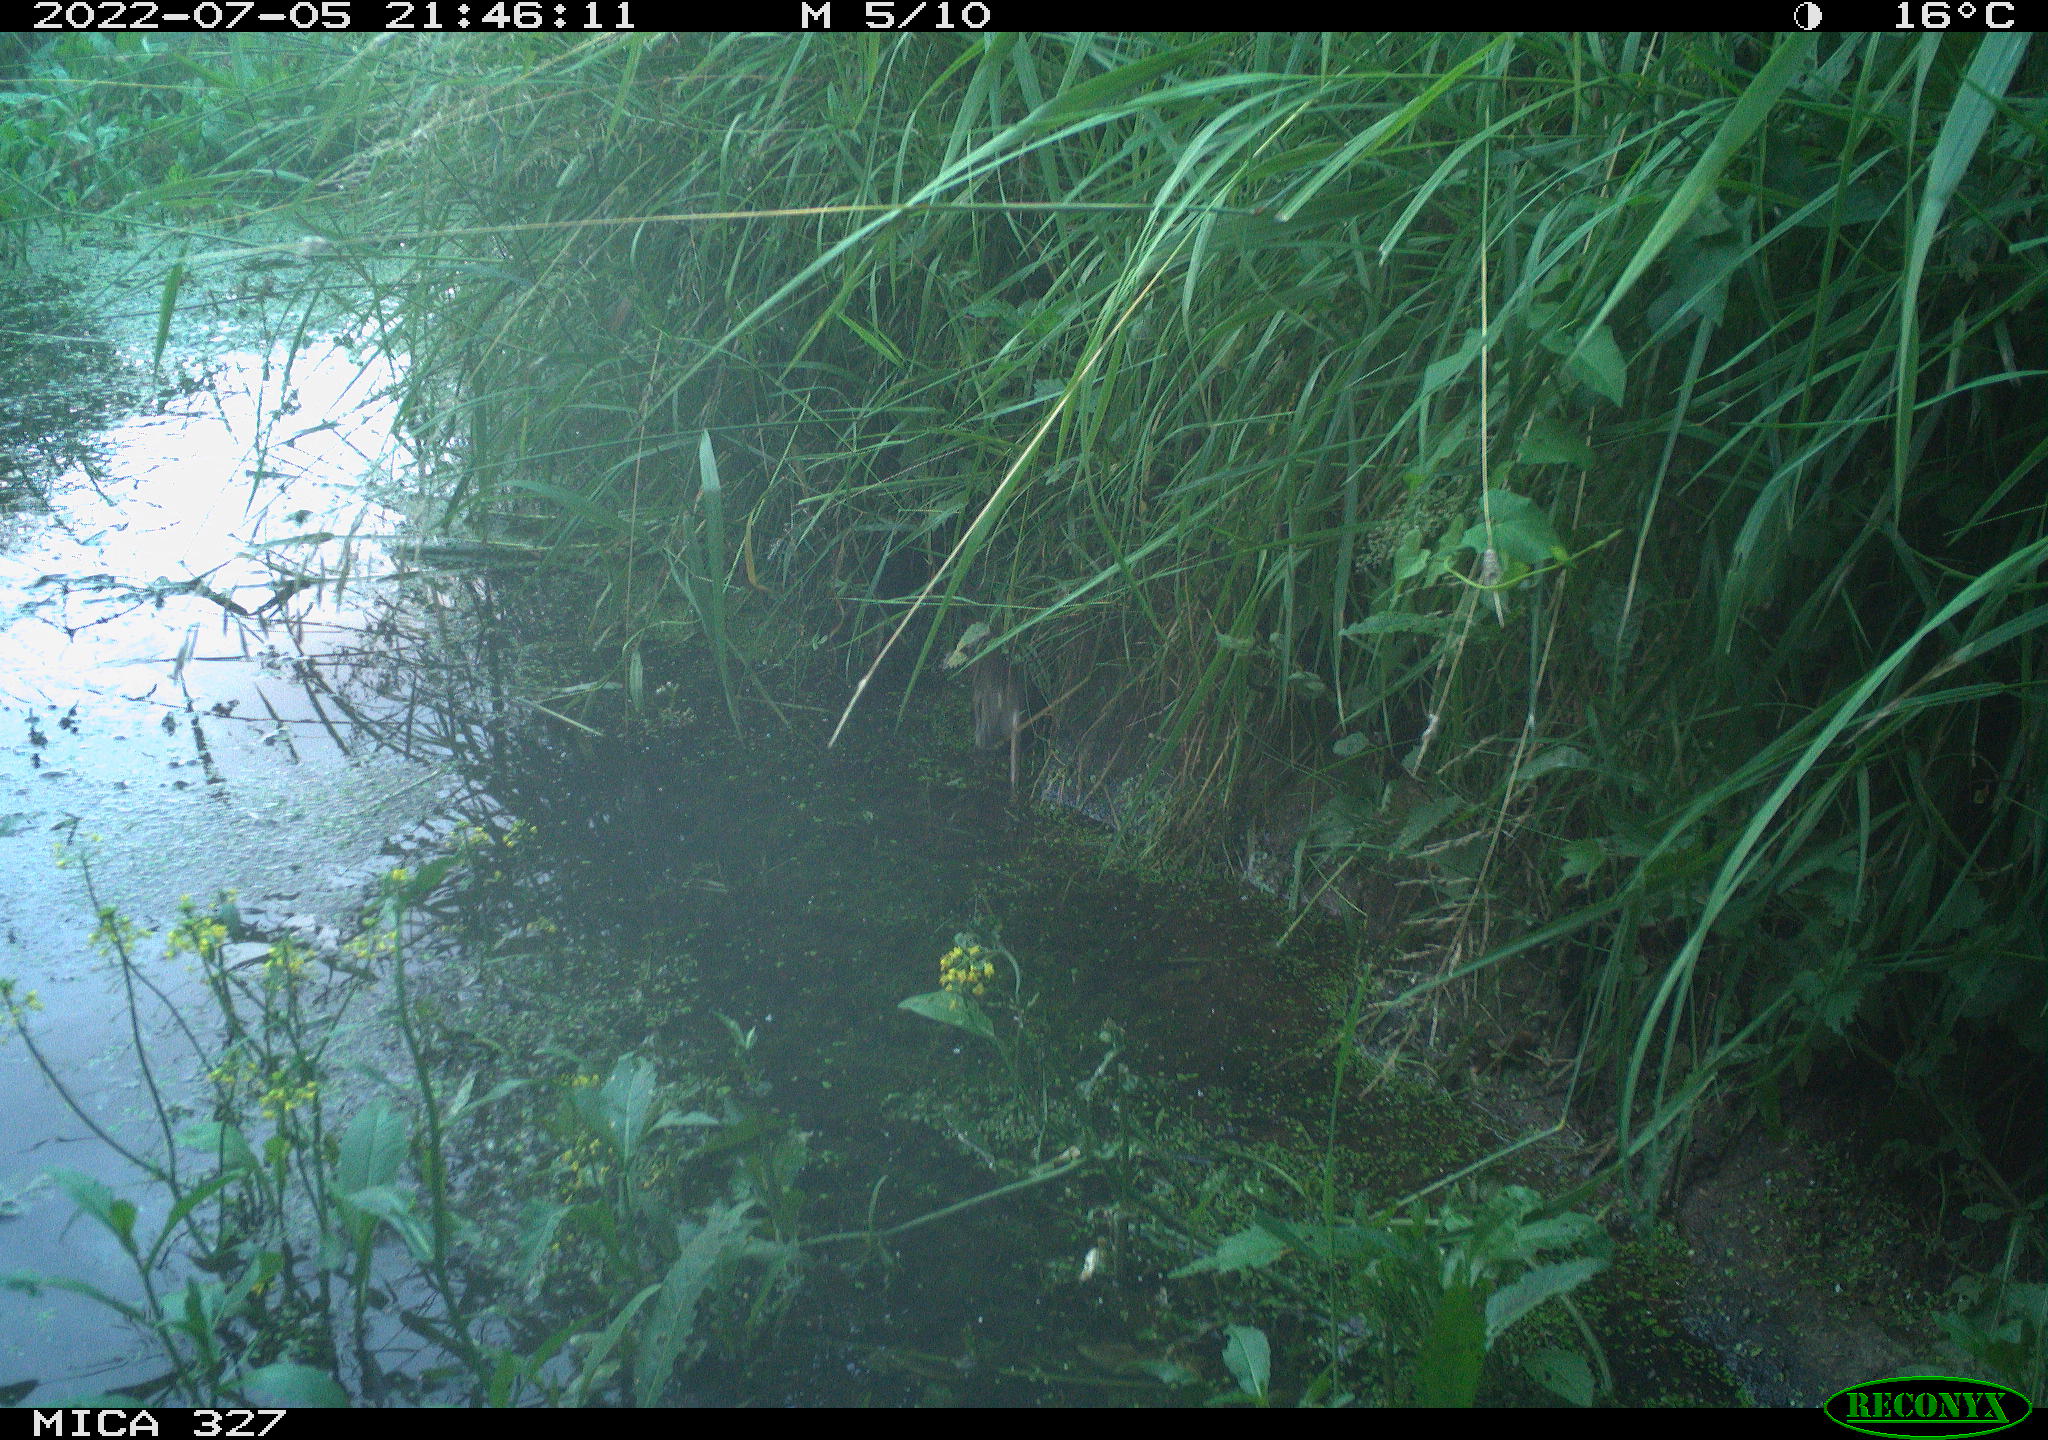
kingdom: Animalia
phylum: Chordata
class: Mammalia
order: Rodentia
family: Muridae
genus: Rattus
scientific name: Rattus norvegicus
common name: Brown rat
